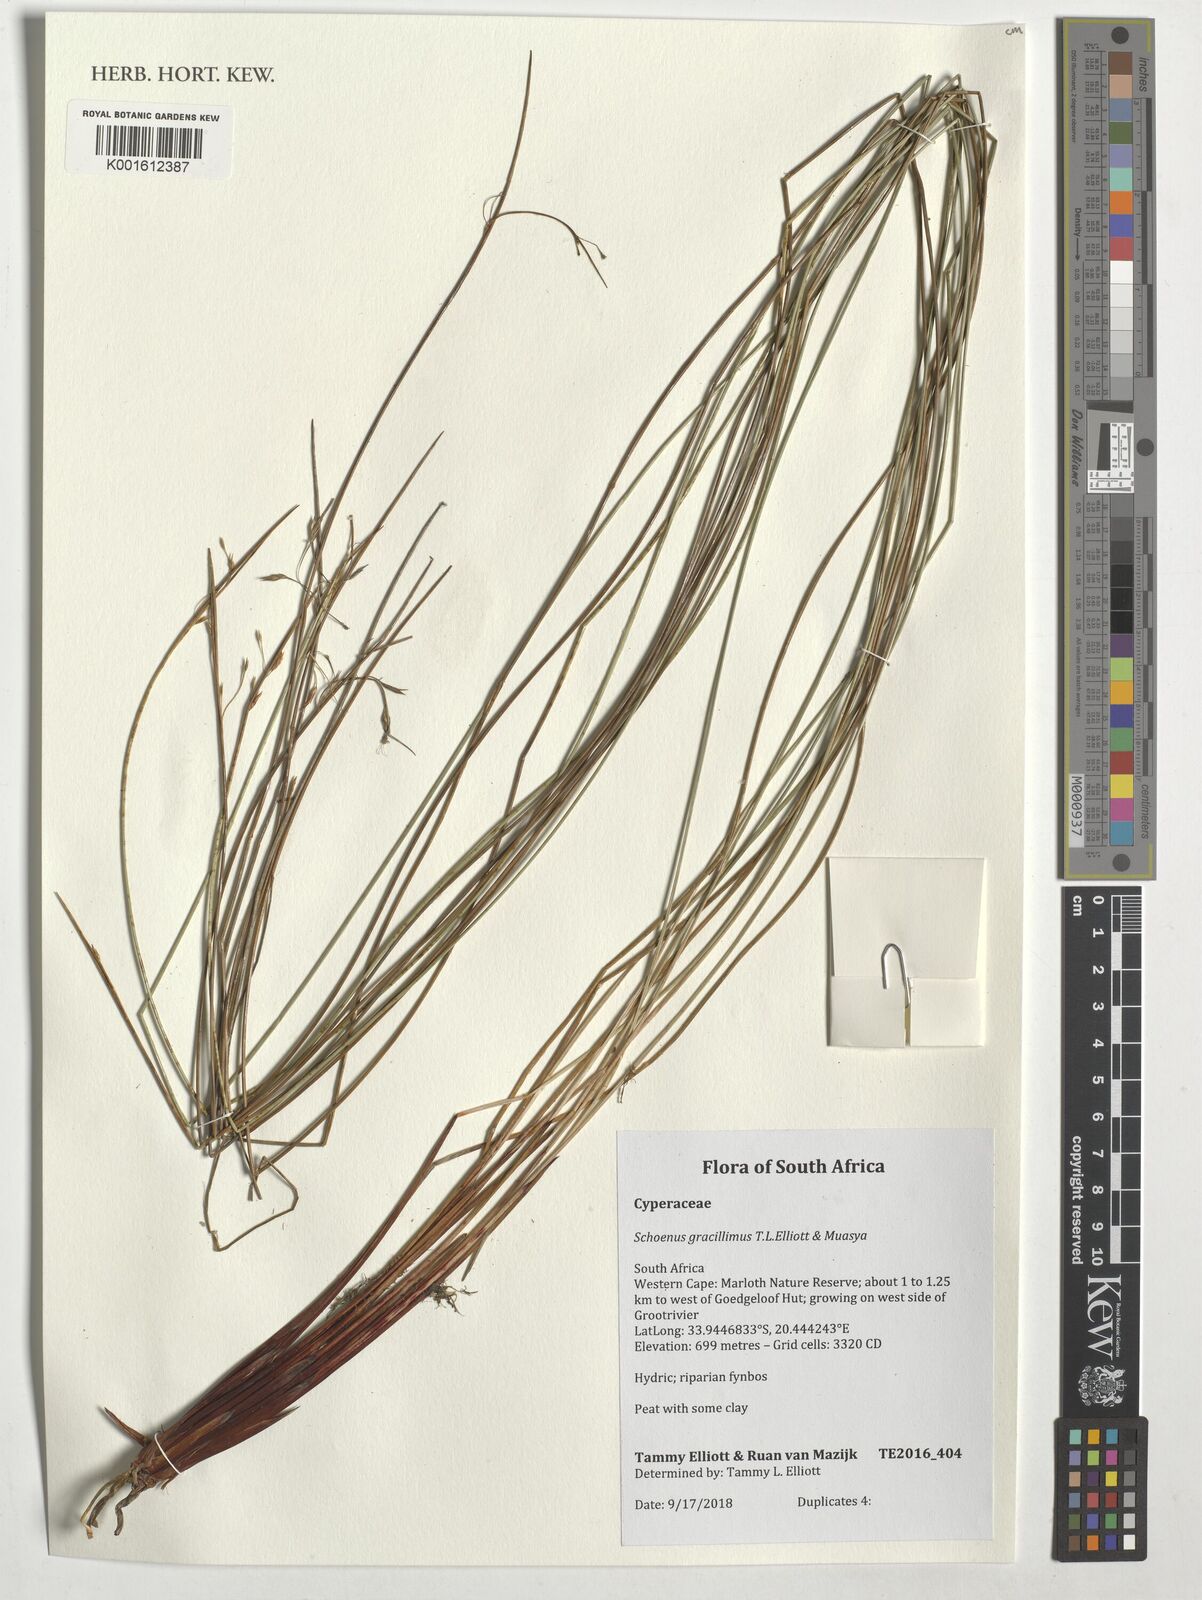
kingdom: Plantae
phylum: Tracheophyta
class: Liliopsida
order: Poales
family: Cyperaceae
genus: Schoenus
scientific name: Schoenus
